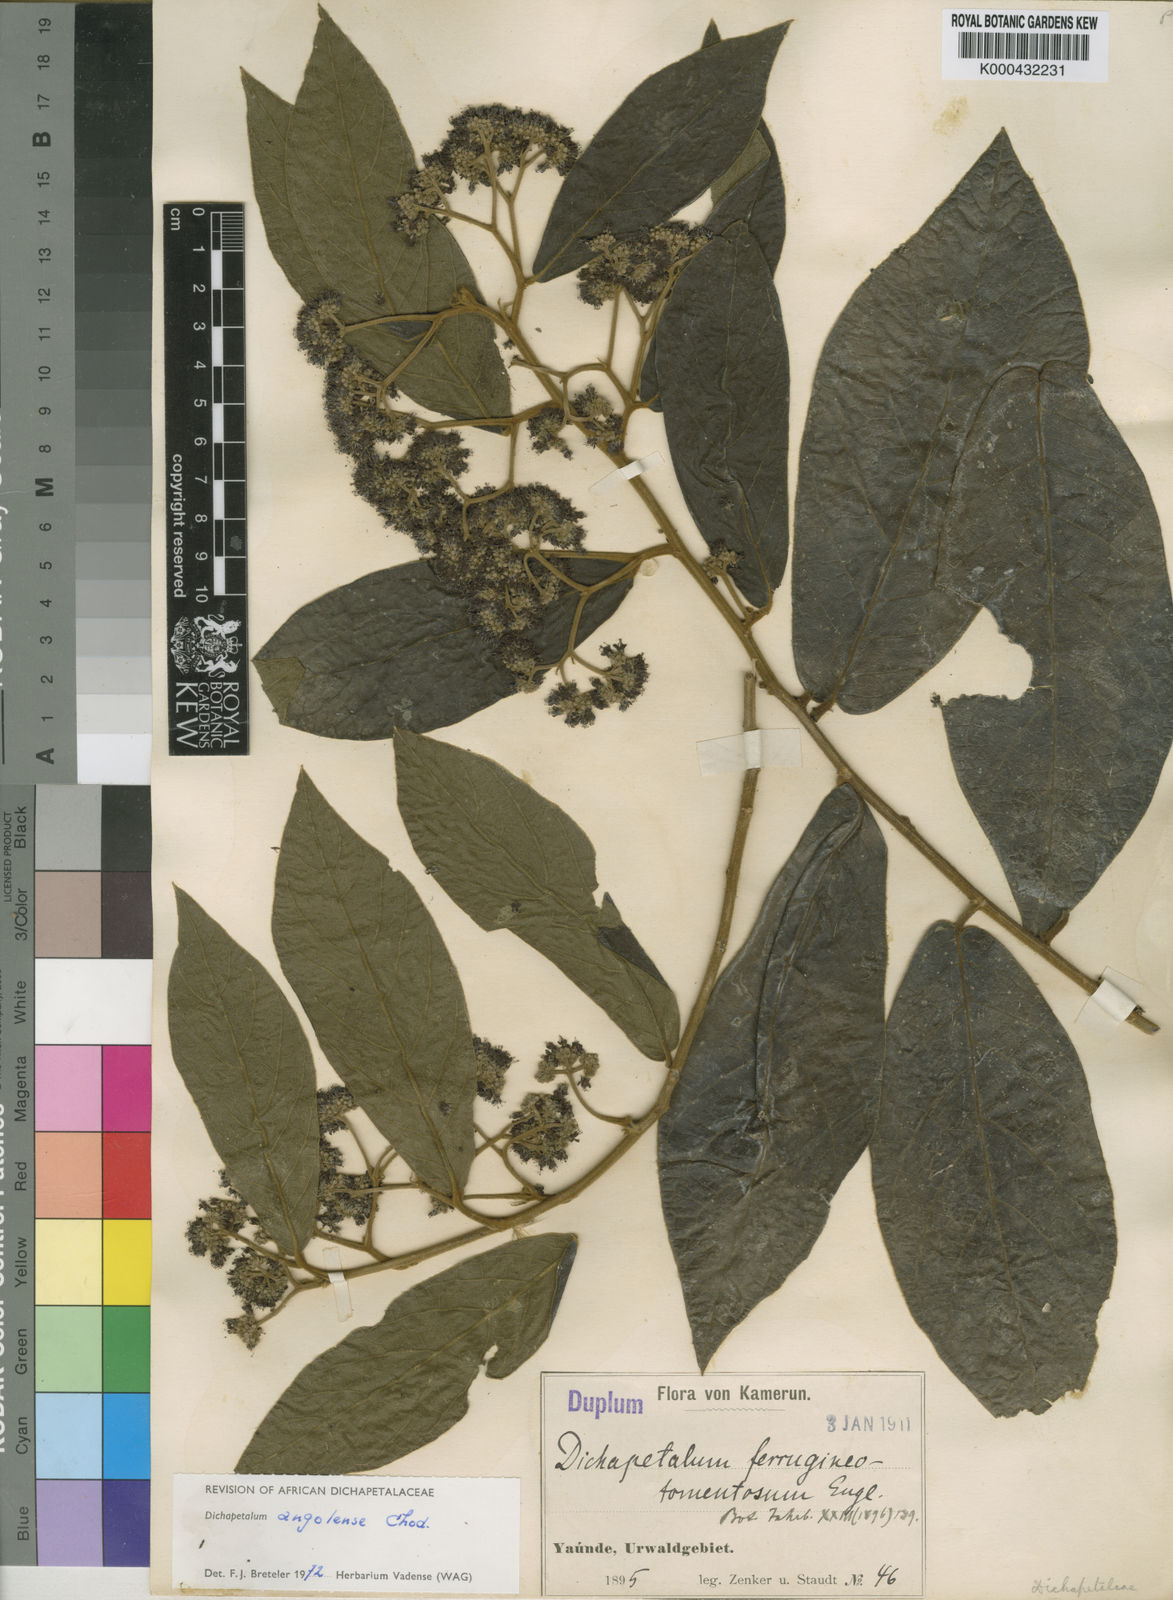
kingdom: Plantae
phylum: Tracheophyta
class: Magnoliopsida
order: Malpighiales
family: Dichapetalaceae
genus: Dichapetalum
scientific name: Dichapetalum angolense
